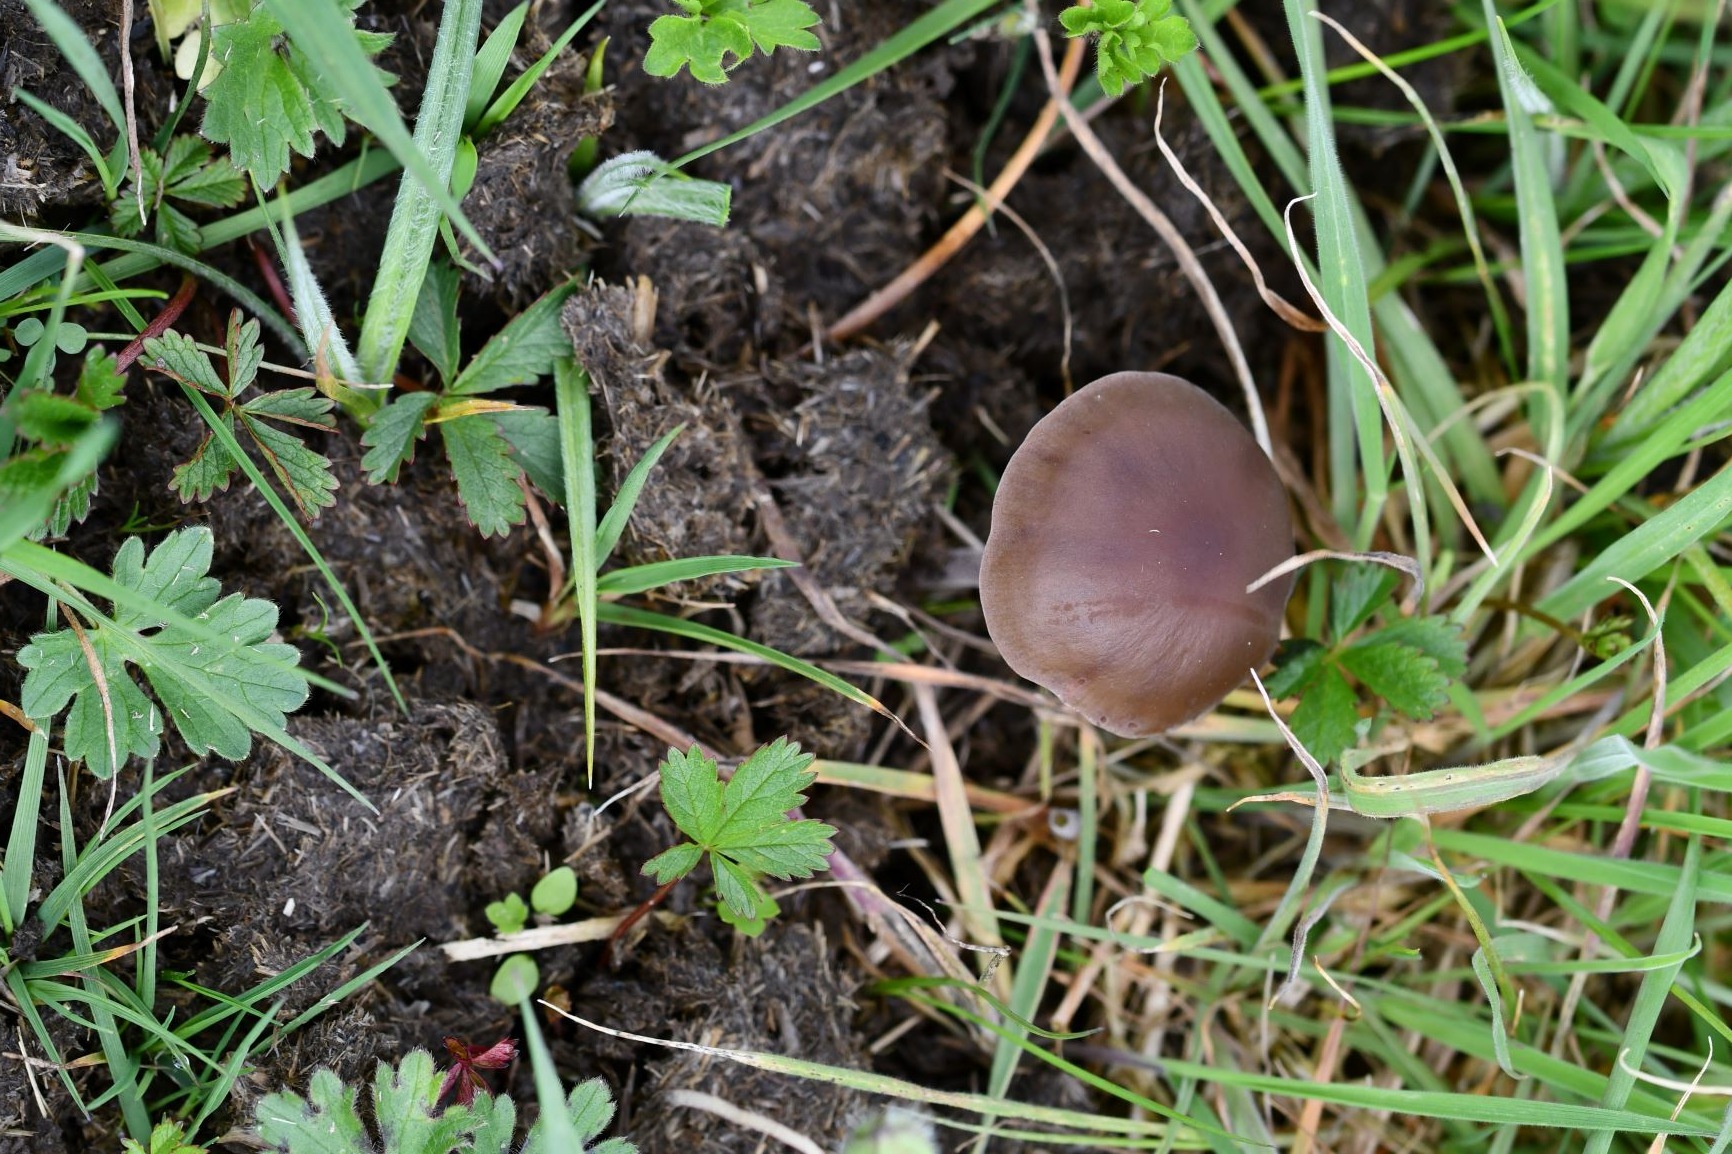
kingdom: Fungi
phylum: Basidiomycota
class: Agaricomycetes
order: Agaricales
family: Bolbitiaceae
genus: Panaeolus
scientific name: Panaeolus acuminatus
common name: høj glanshat
